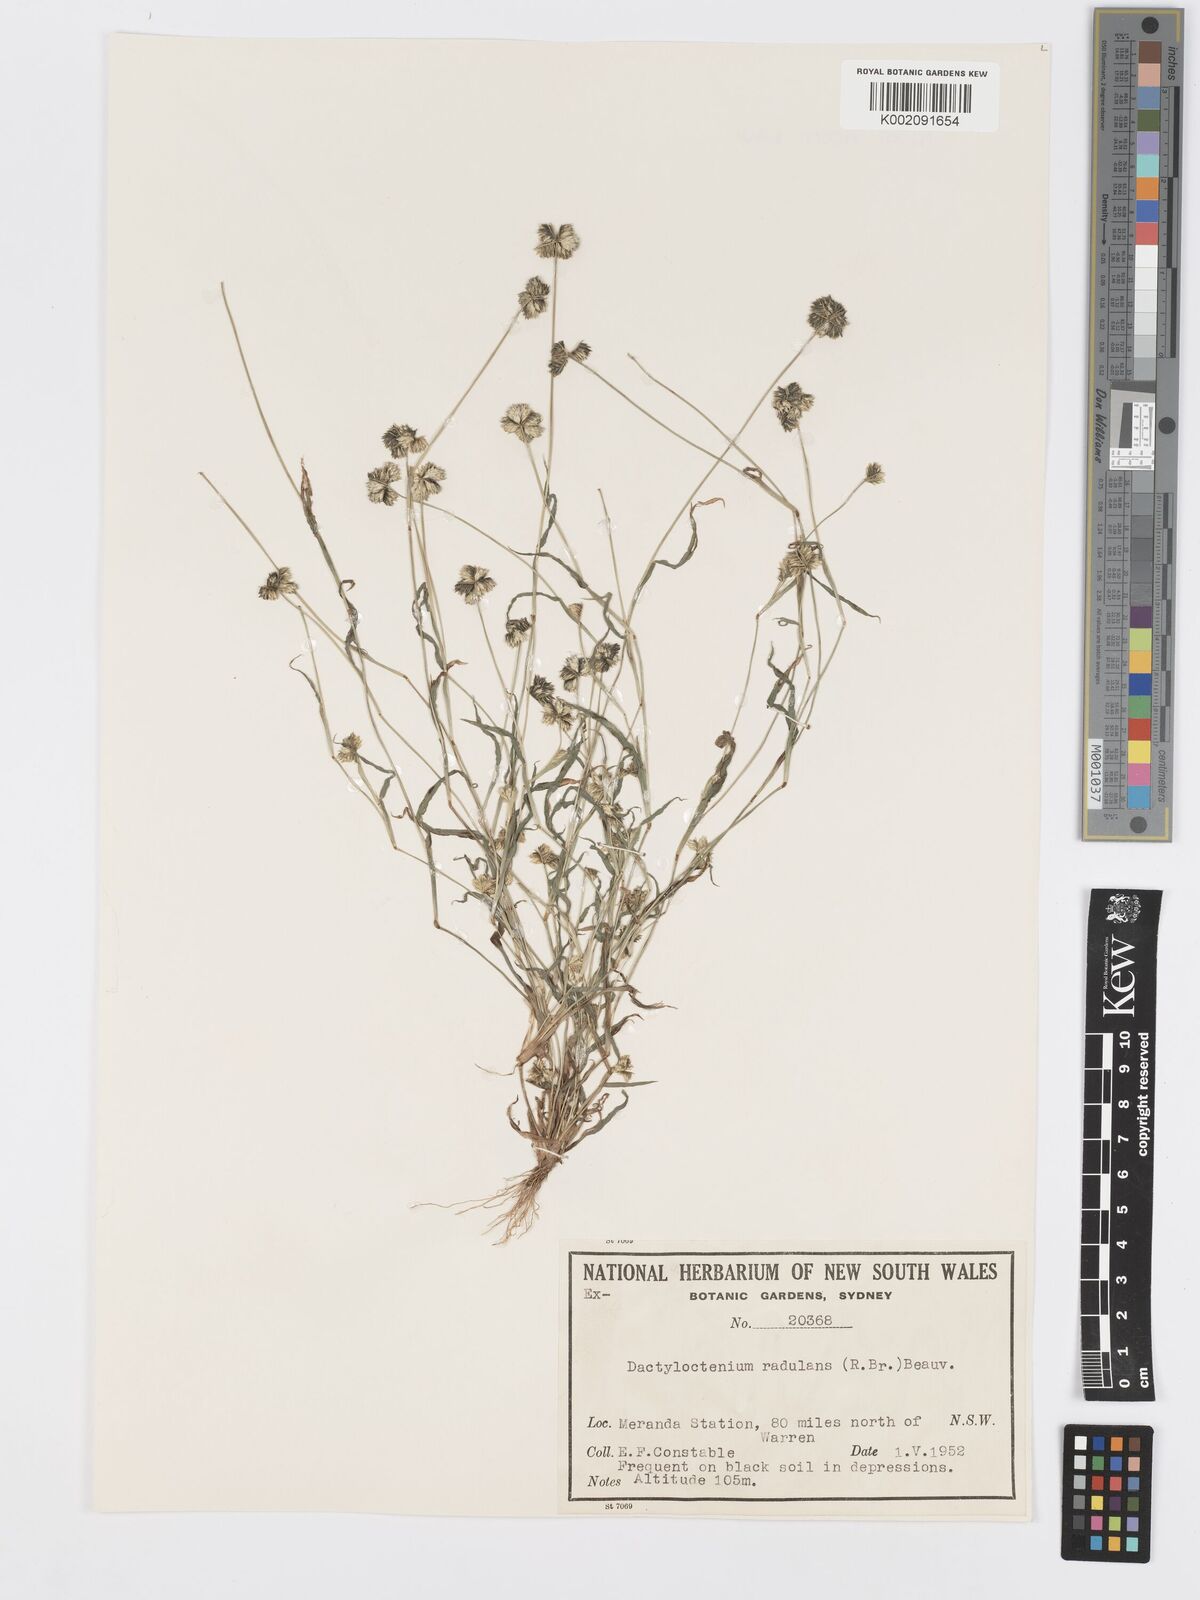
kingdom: Plantae
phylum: Tracheophyta
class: Liliopsida
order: Poales
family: Poaceae
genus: Dactyloctenium
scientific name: Dactyloctenium radulans
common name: Button-grass
